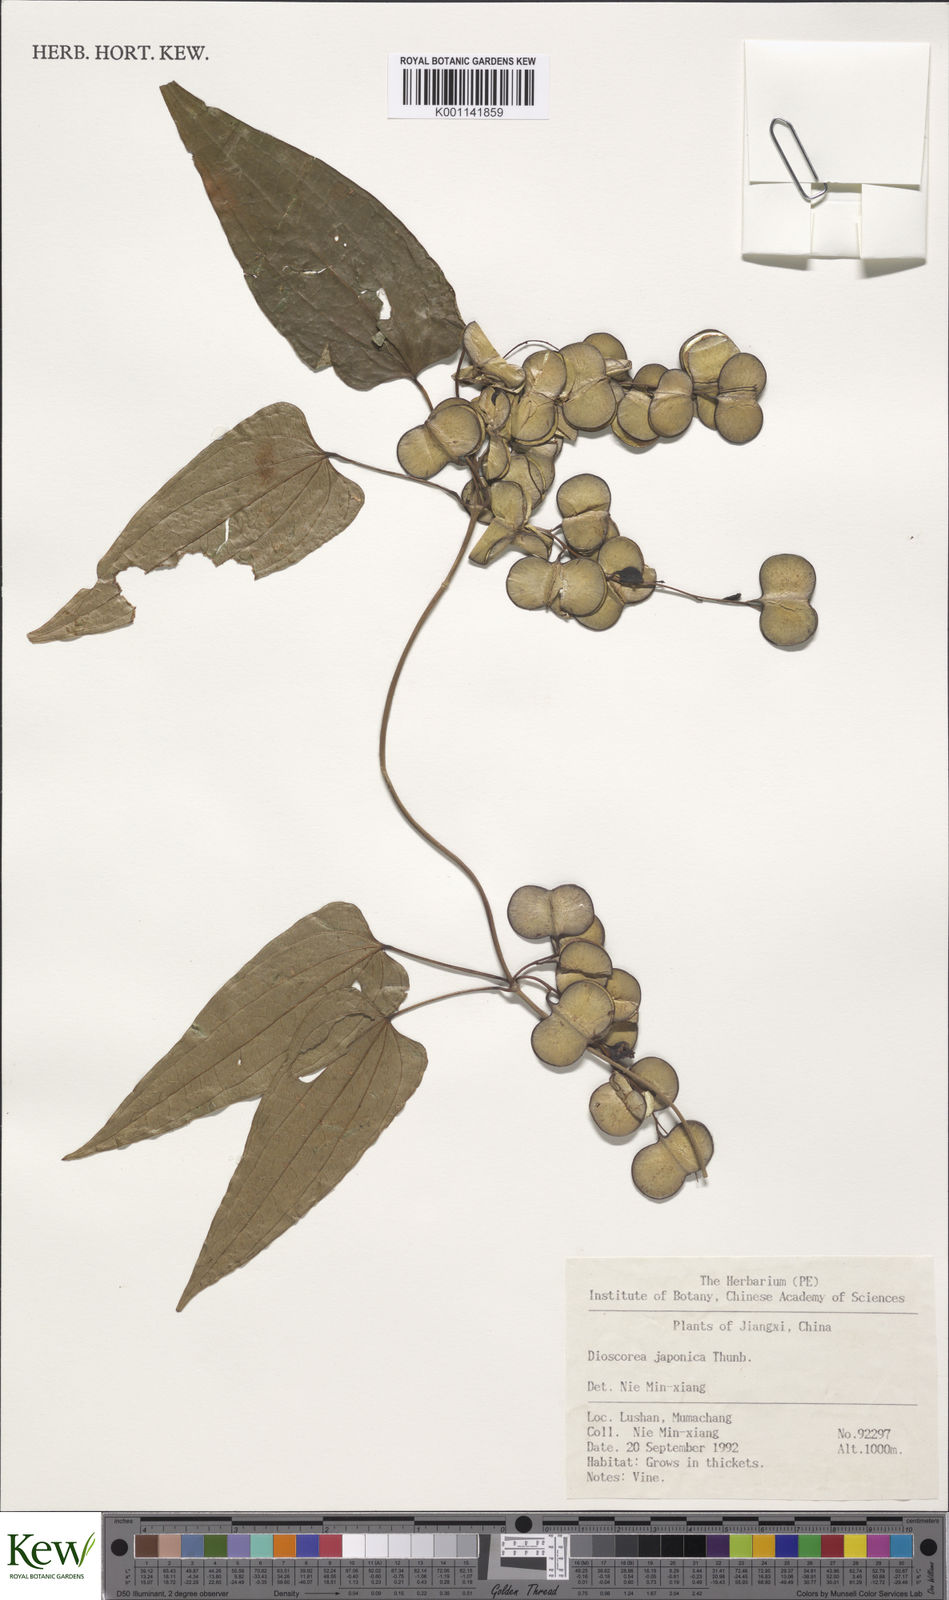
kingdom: Plantae
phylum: Tracheophyta
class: Liliopsida
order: Dioscoreales
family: Dioscoreaceae
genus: Dioscorea
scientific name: Dioscorea japonica
